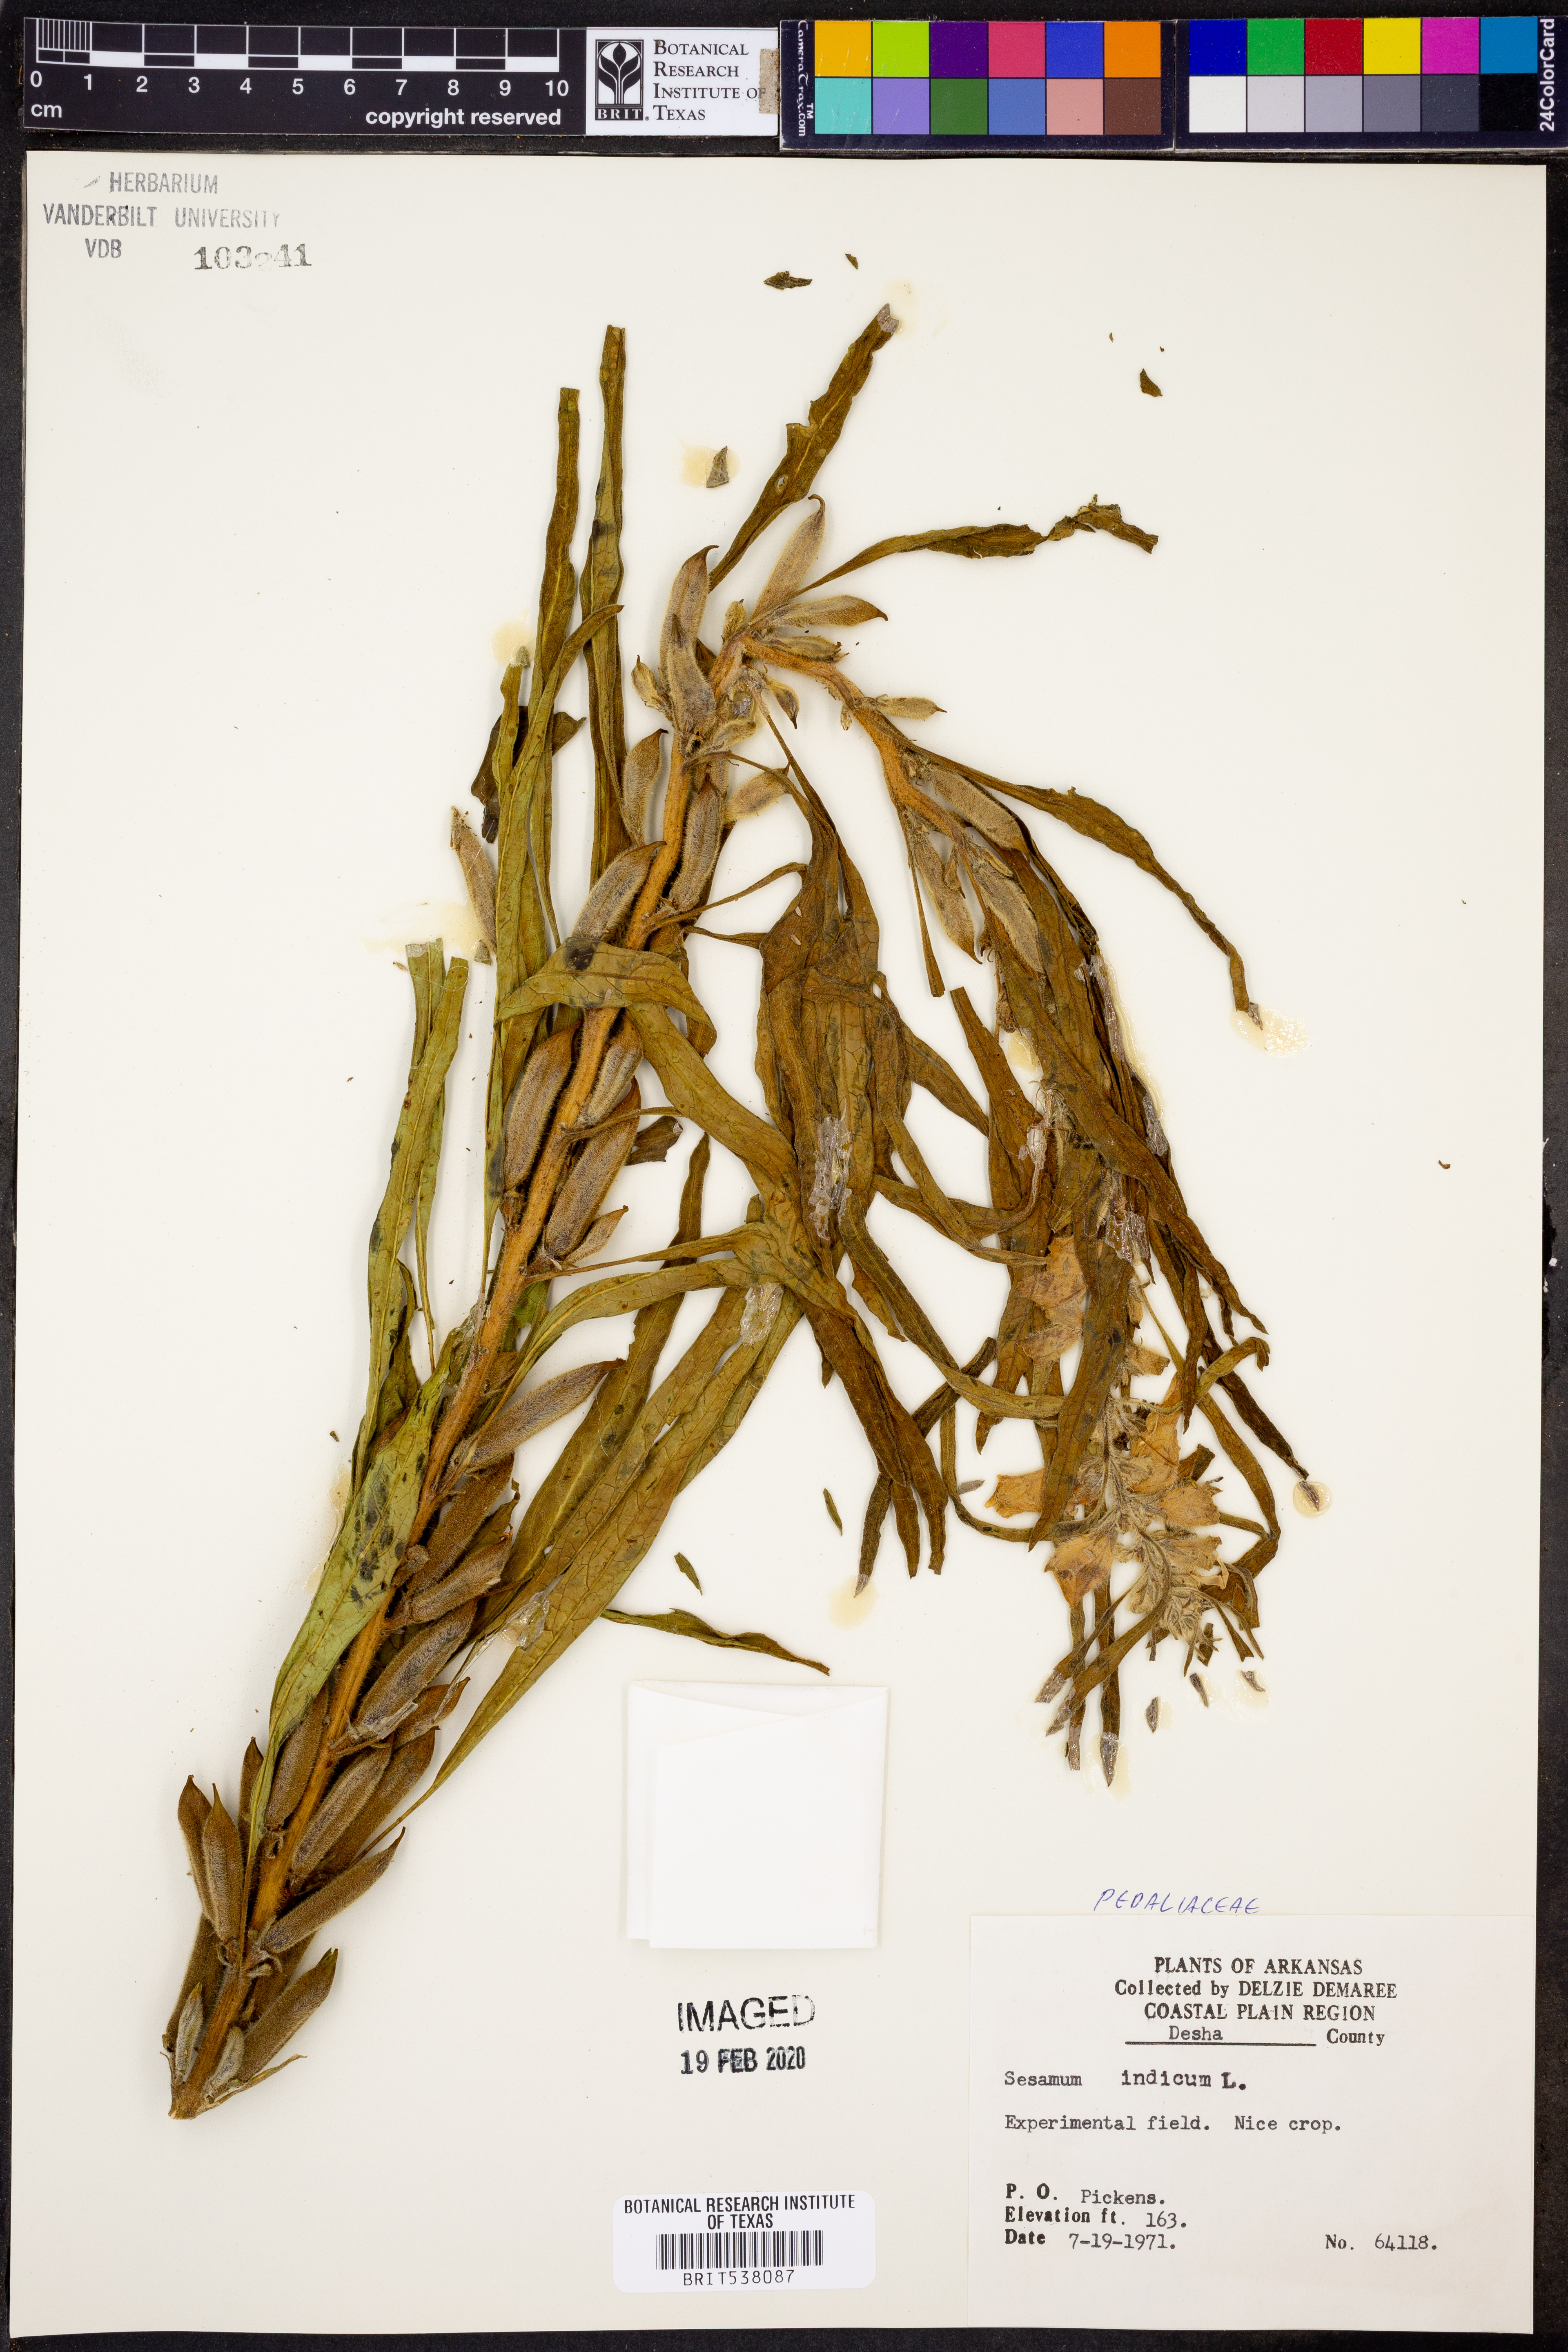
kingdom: Plantae
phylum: Tracheophyta
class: Magnoliopsida
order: Lamiales
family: Pedaliaceae
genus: Sesamum
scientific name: Sesamum indicum
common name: Sesame
